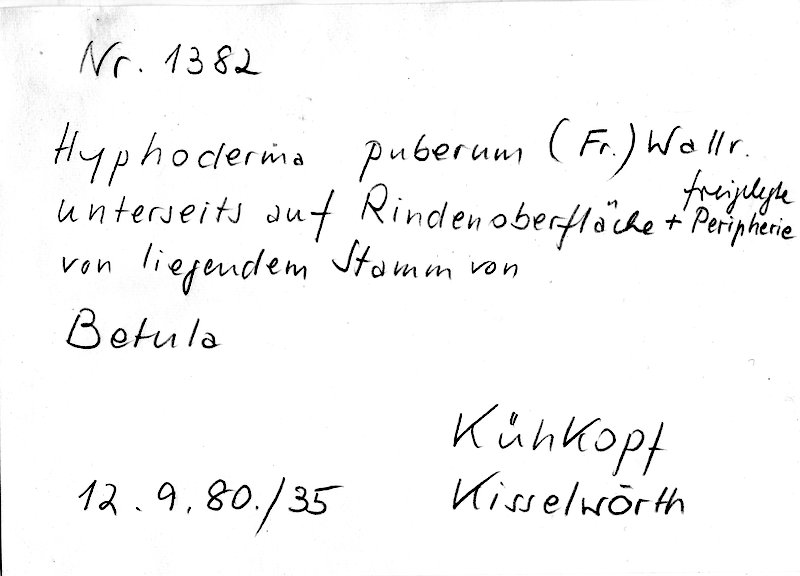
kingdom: Fungi
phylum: Basidiomycota
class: Agaricomycetes
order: Hymenochaetales
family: Rickenellaceae
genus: Peniophorella
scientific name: Peniophorella pubera
